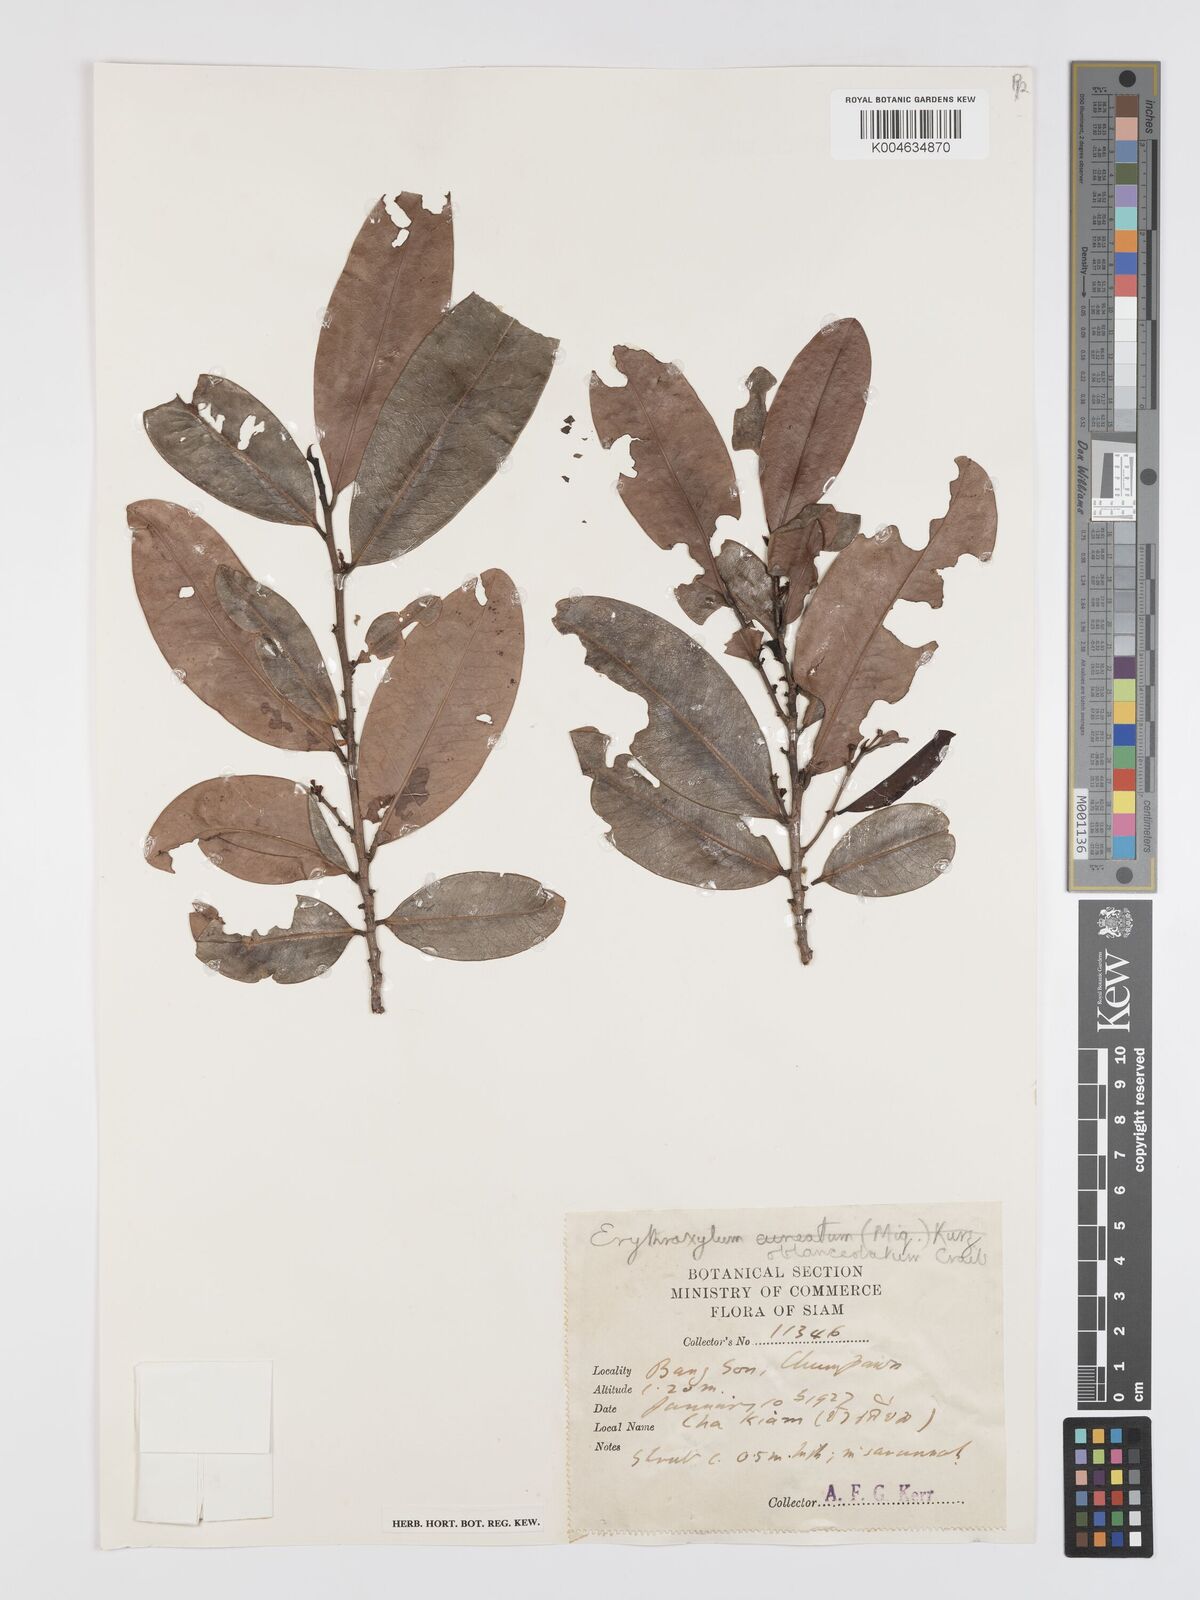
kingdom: Plantae
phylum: Tracheophyta
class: Magnoliopsida
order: Malpighiales
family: Erythroxylaceae
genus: Erythroxylum
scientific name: Erythroxylum cuneatum
